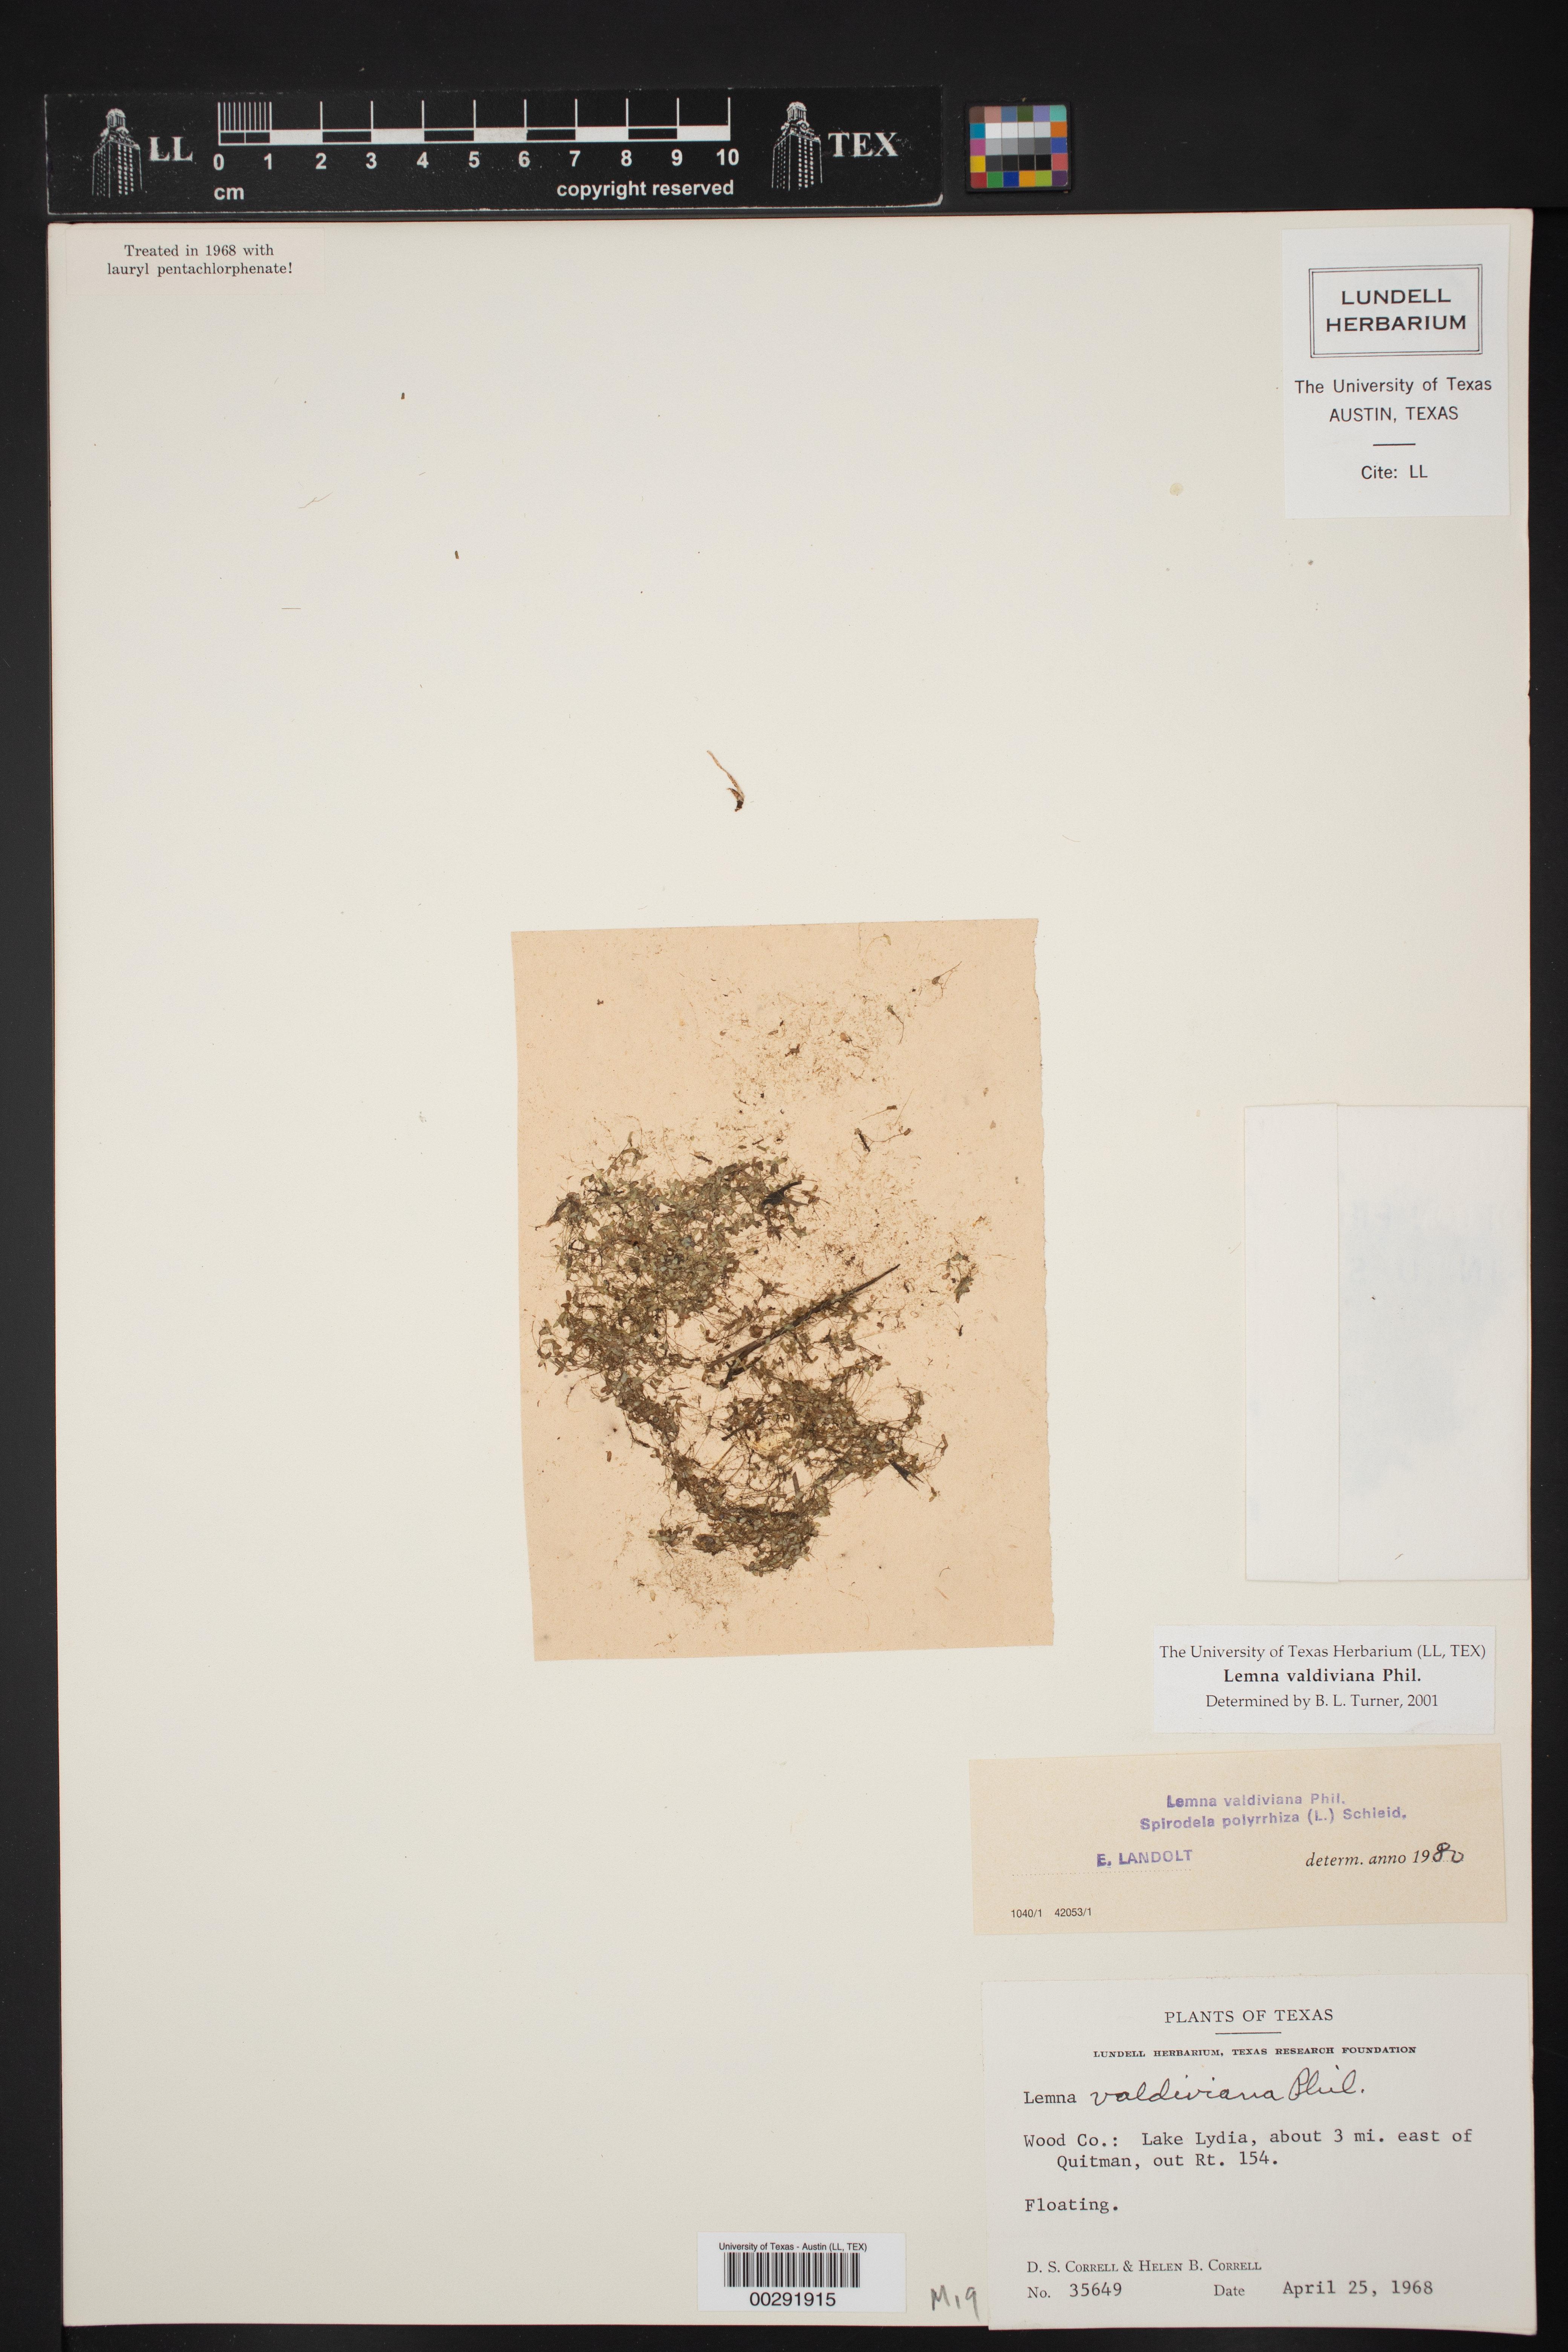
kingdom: Plantae
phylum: Tracheophyta
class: Liliopsida
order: Alismatales
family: Araceae
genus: Lemna
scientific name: Lemna valdiviana
